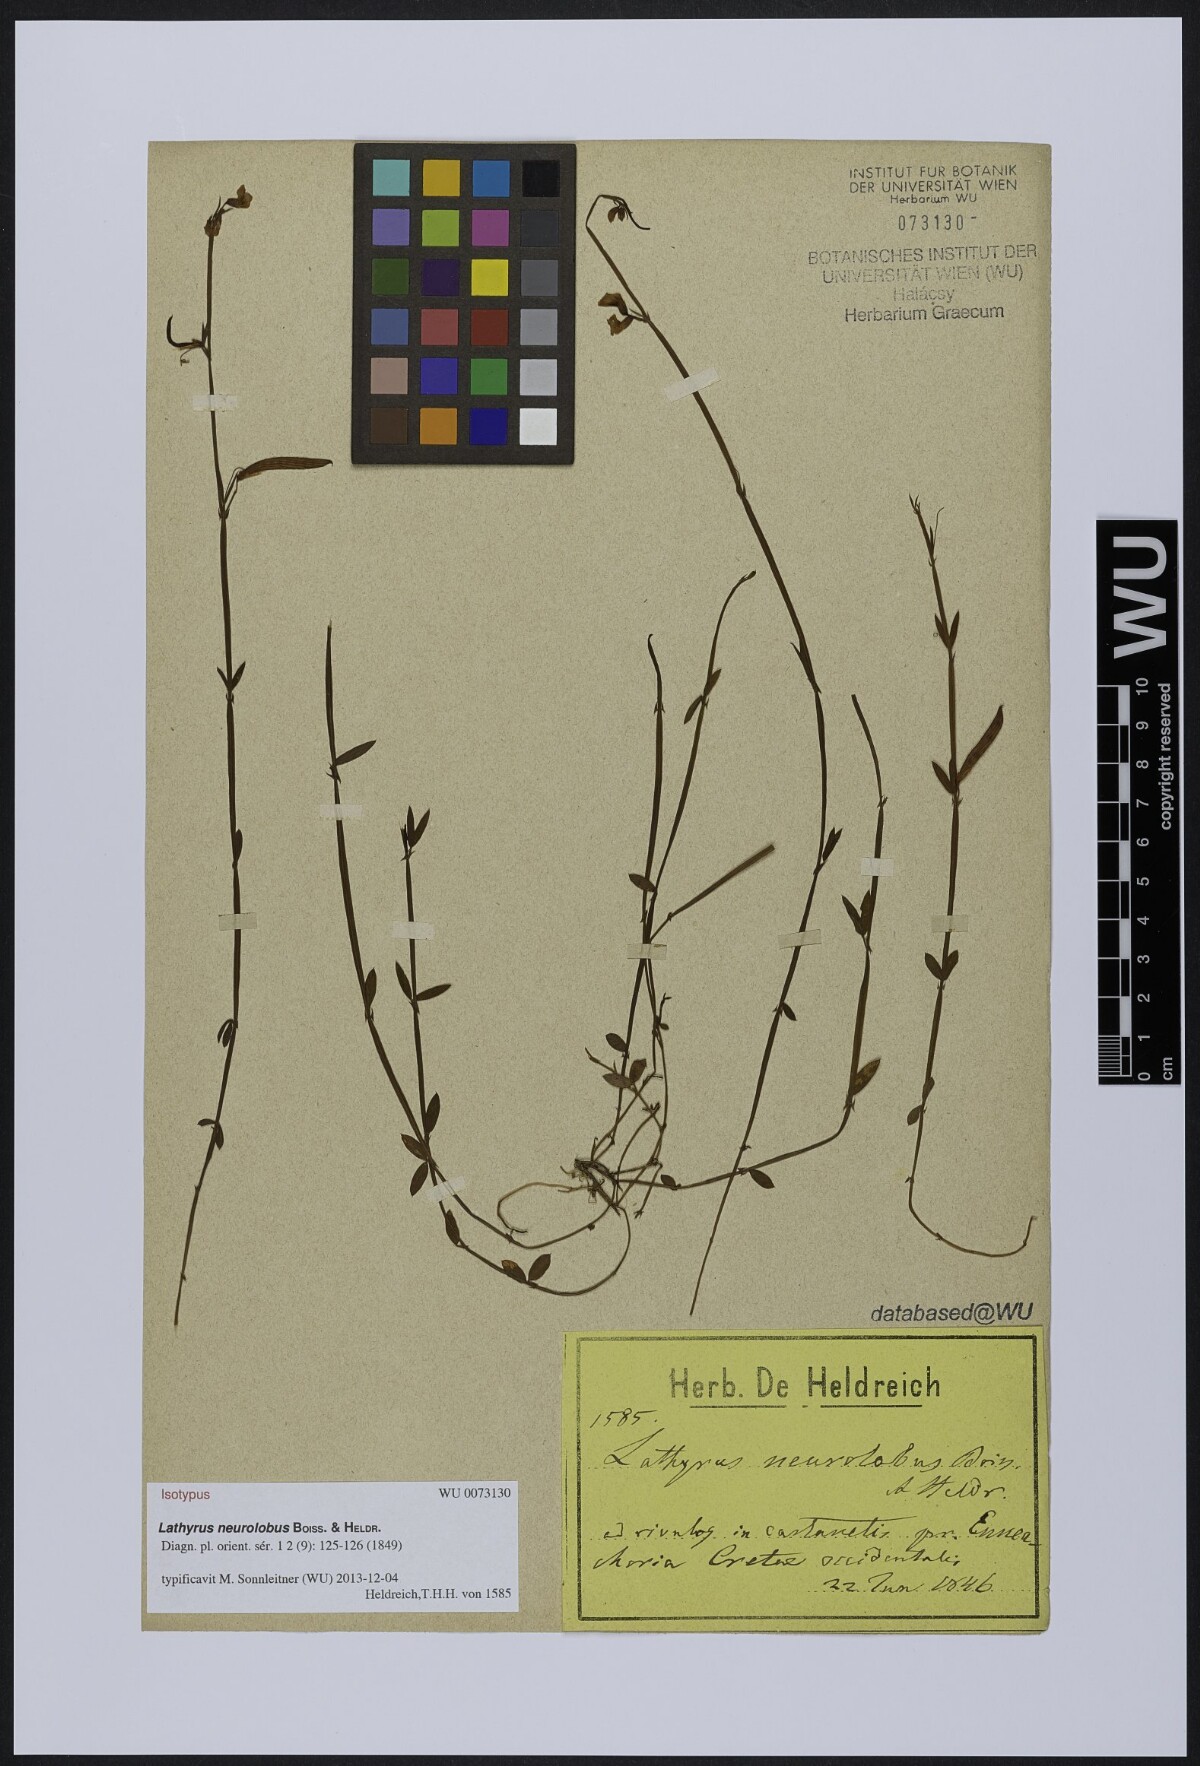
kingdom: Plantae
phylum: Tracheophyta
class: Magnoliopsida
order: Fabales
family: Fabaceae
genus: Lathyrus
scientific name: Lathyrus neurolobus
